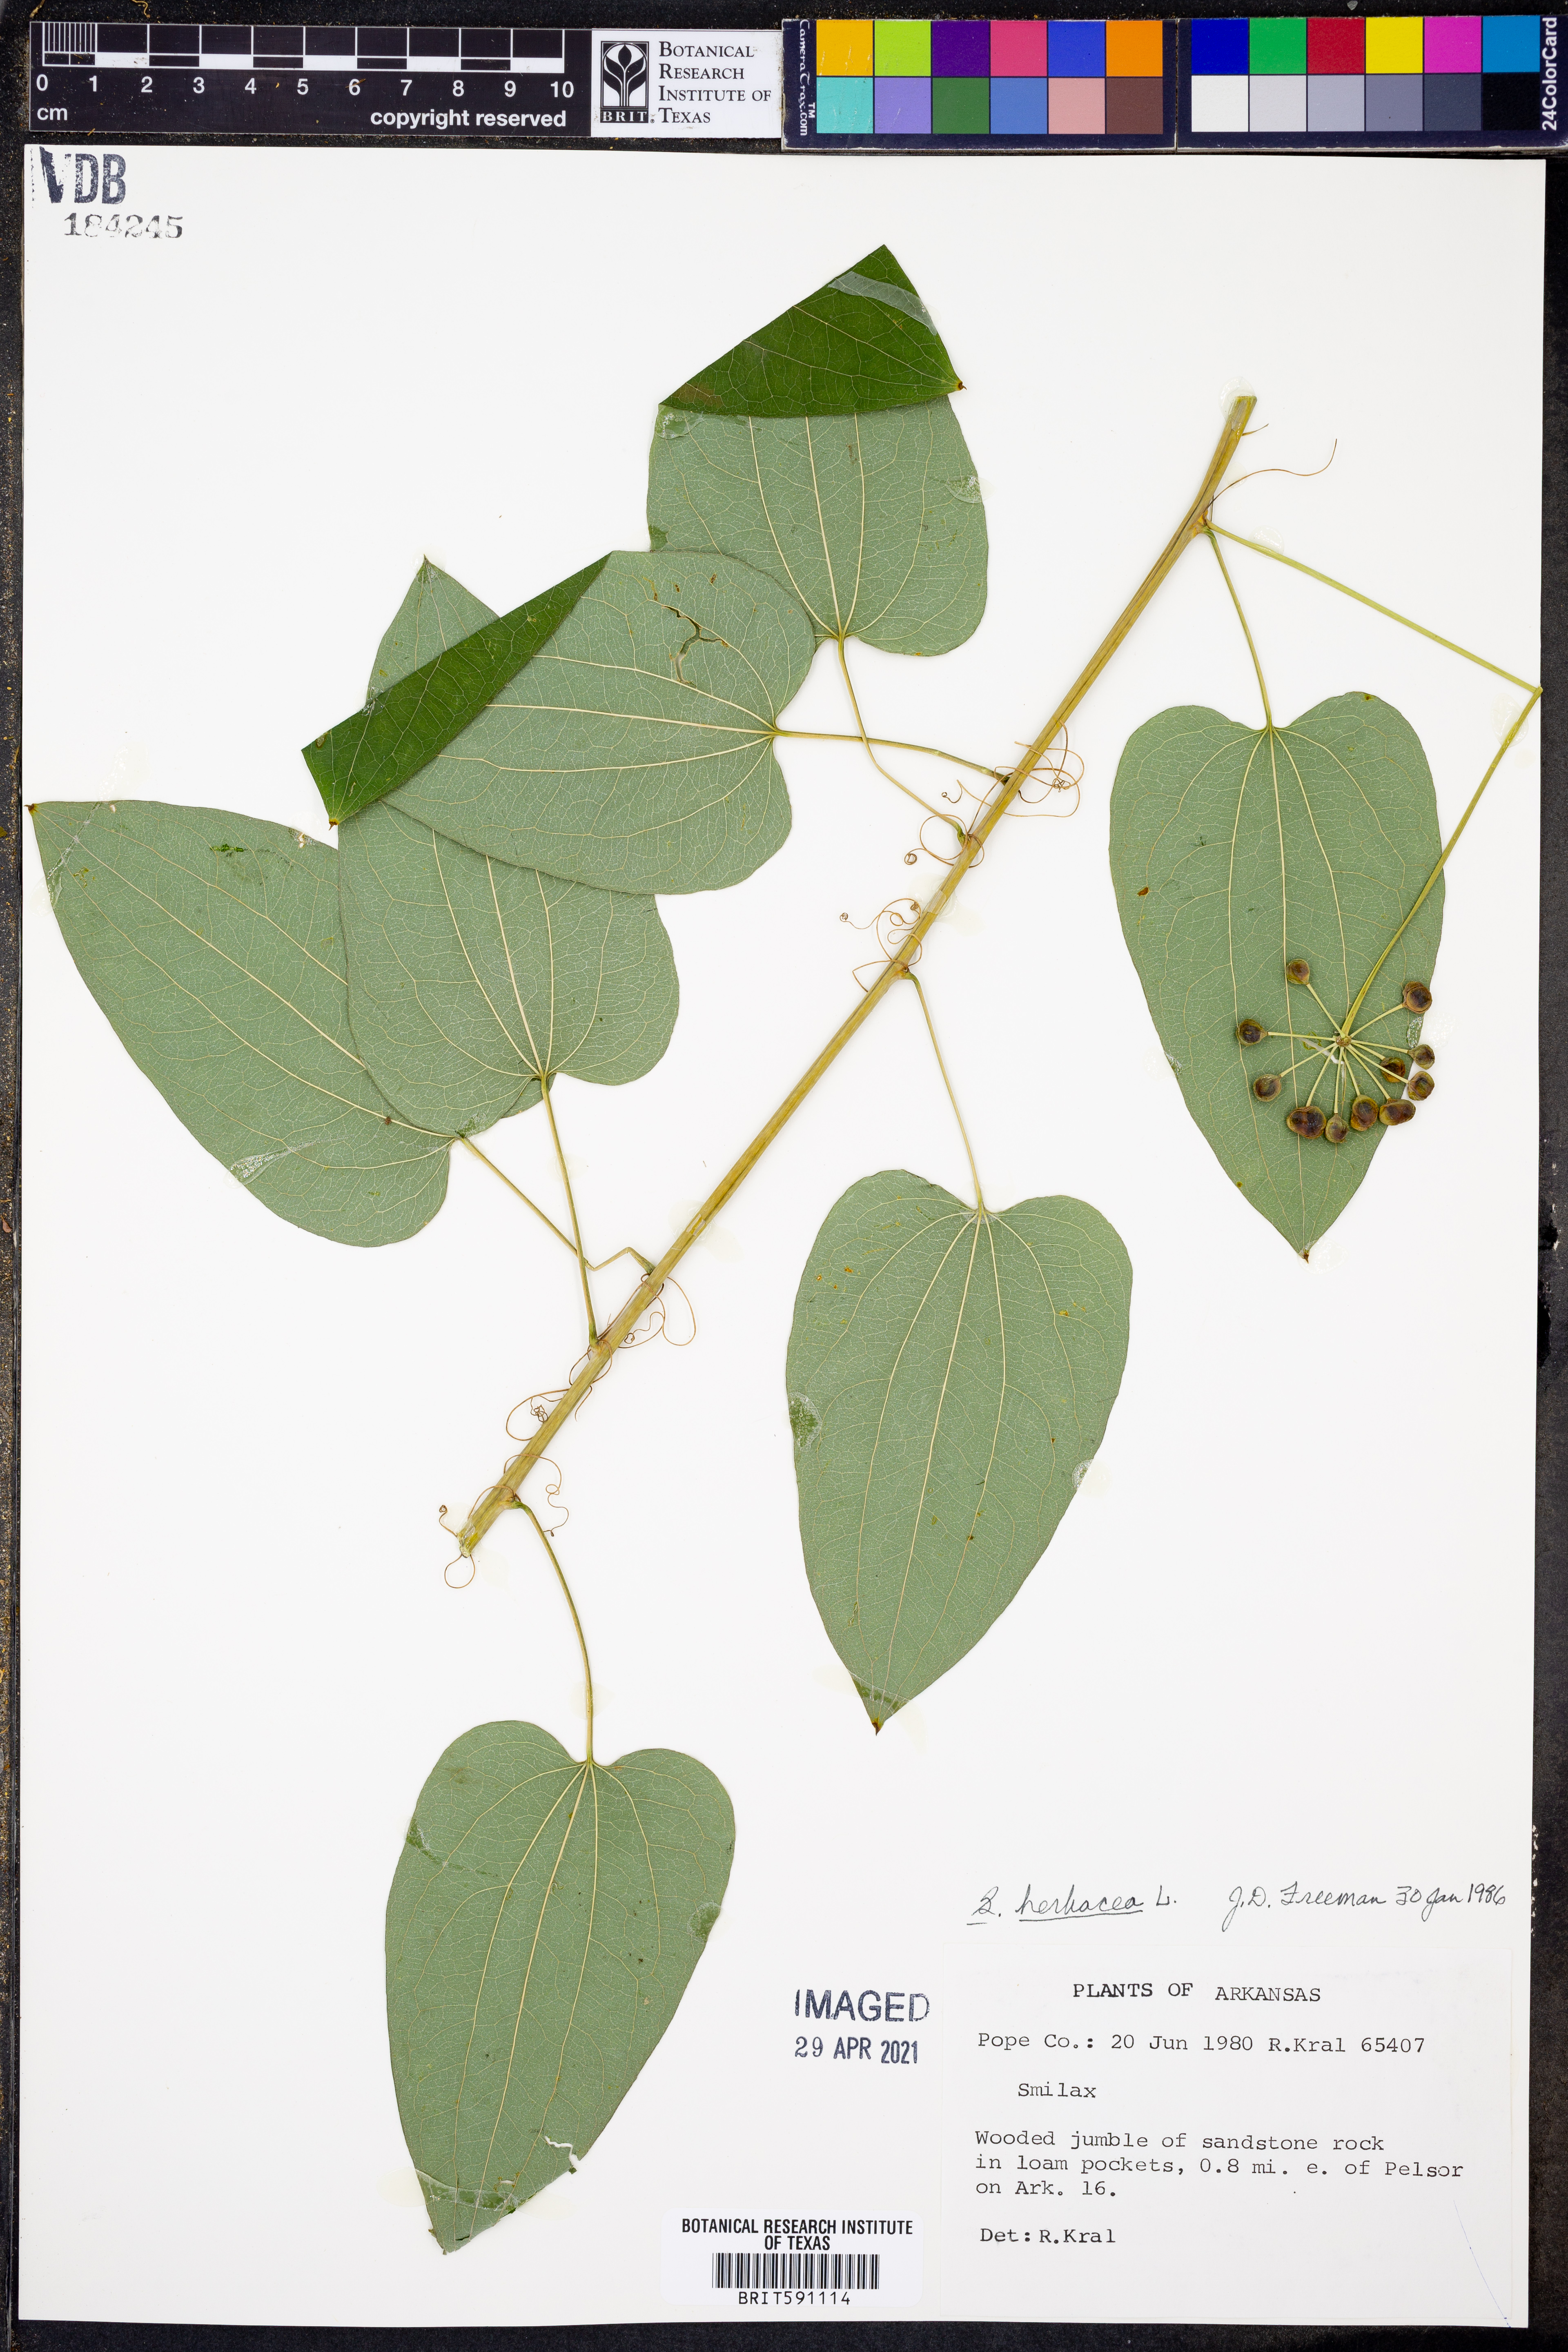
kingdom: Plantae
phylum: Tracheophyta
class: Liliopsida
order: Liliales
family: Smilacaceae
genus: Smilax
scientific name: Smilax herbacea
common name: Jacob's-ladder
